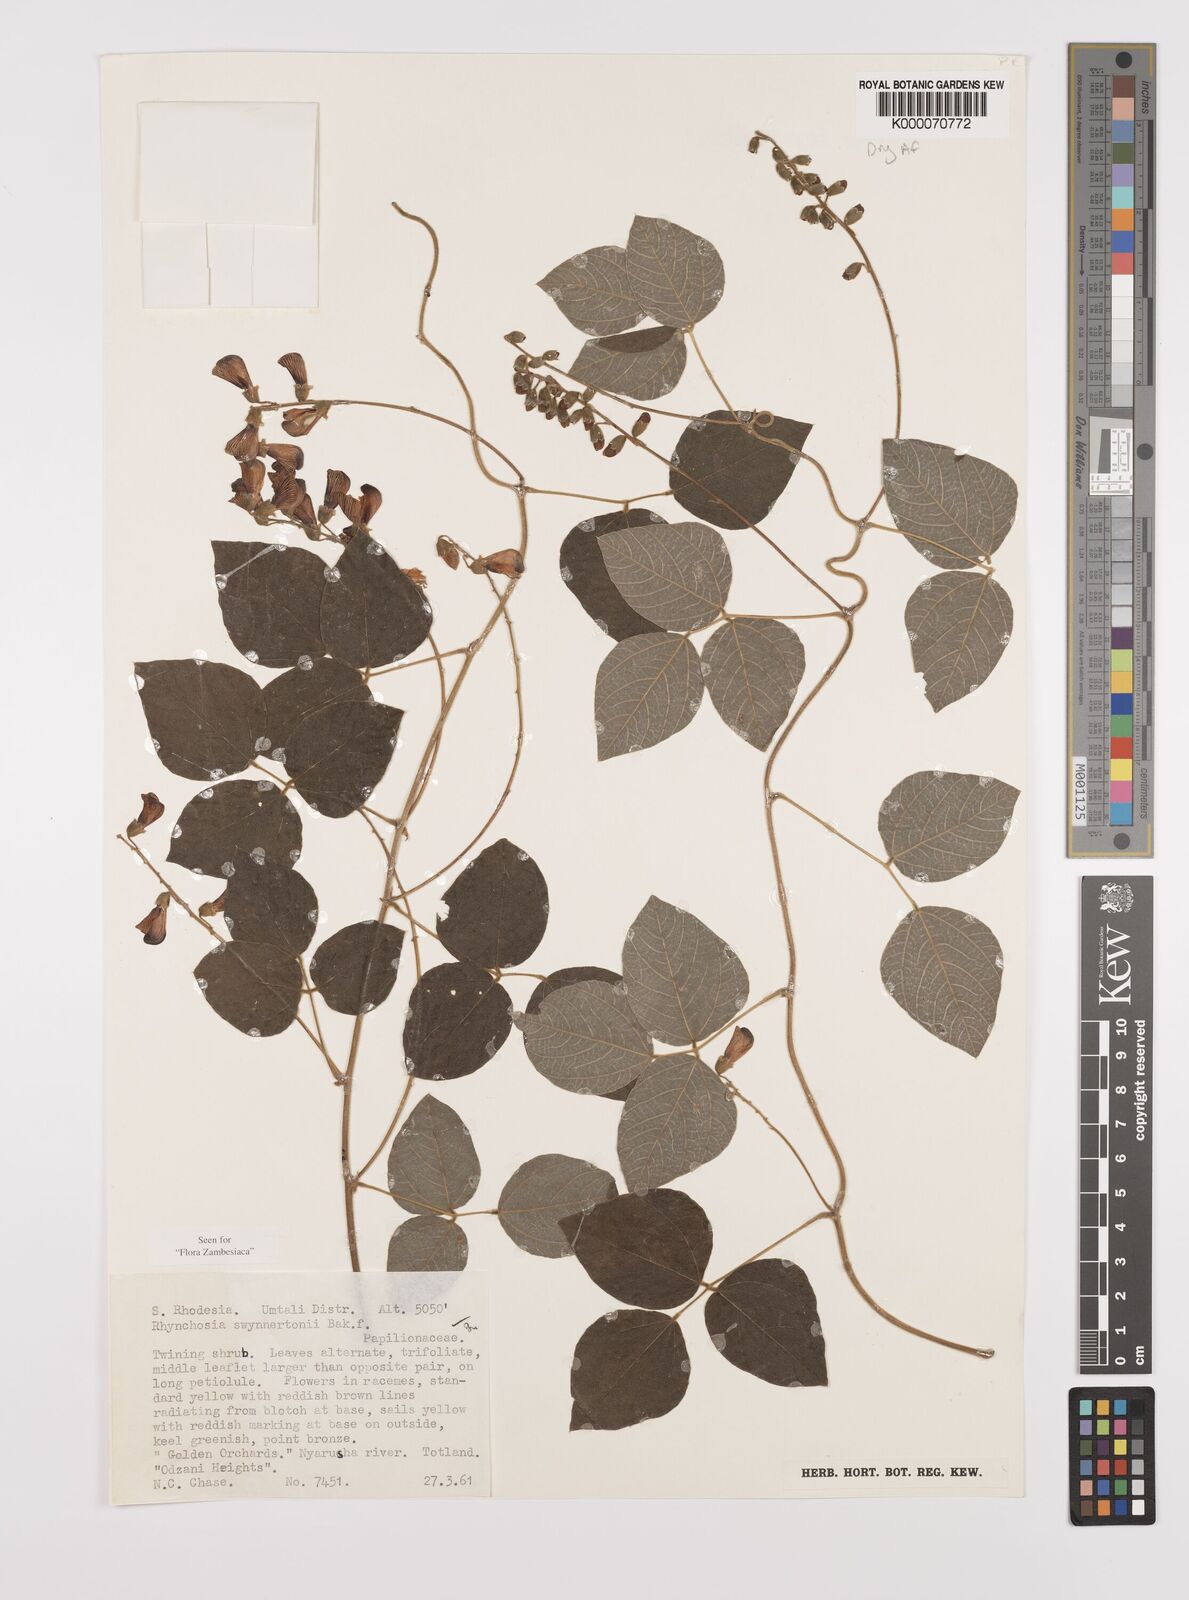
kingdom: Plantae
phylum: Tracheophyta
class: Magnoliopsida
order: Fabales
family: Fabaceae
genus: Rhynchosia
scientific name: Rhynchosia swynnertonii
